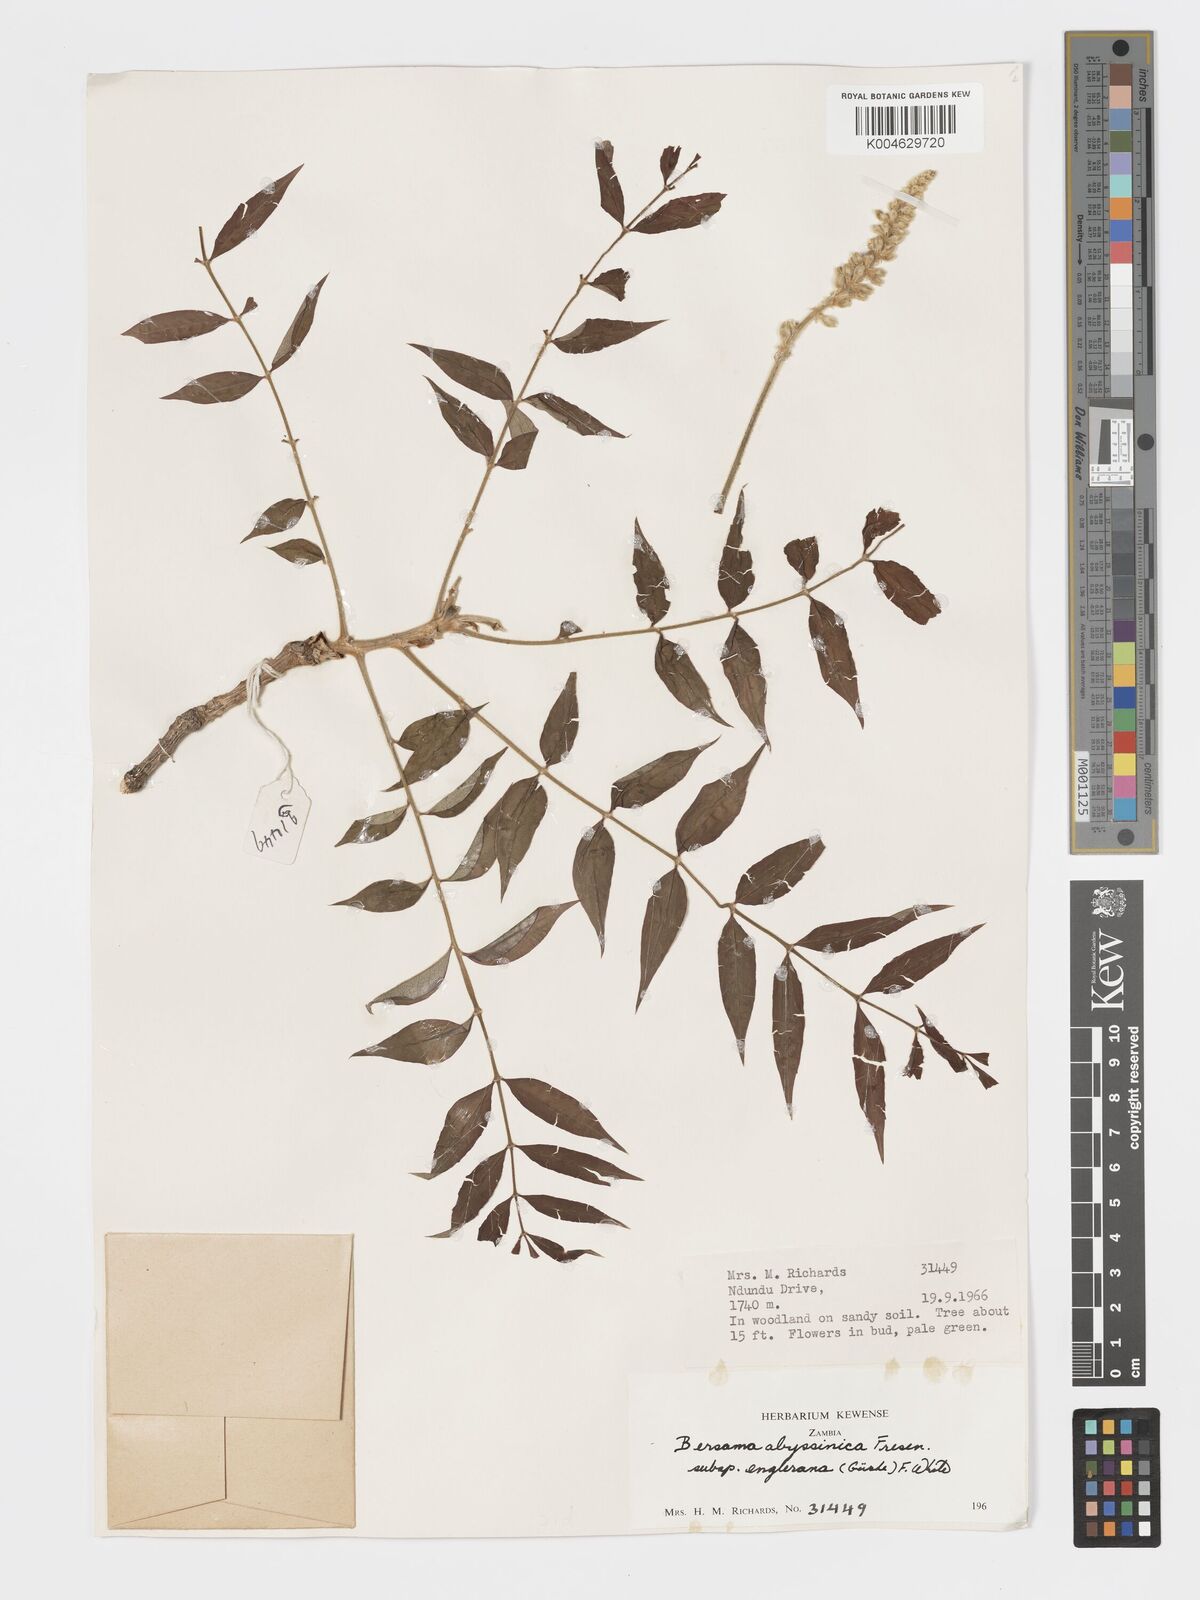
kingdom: Plantae
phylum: Tracheophyta
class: Magnoliopsida
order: Geraniales
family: Melianthaceae
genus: Bersama
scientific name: Bersama abyssinica
